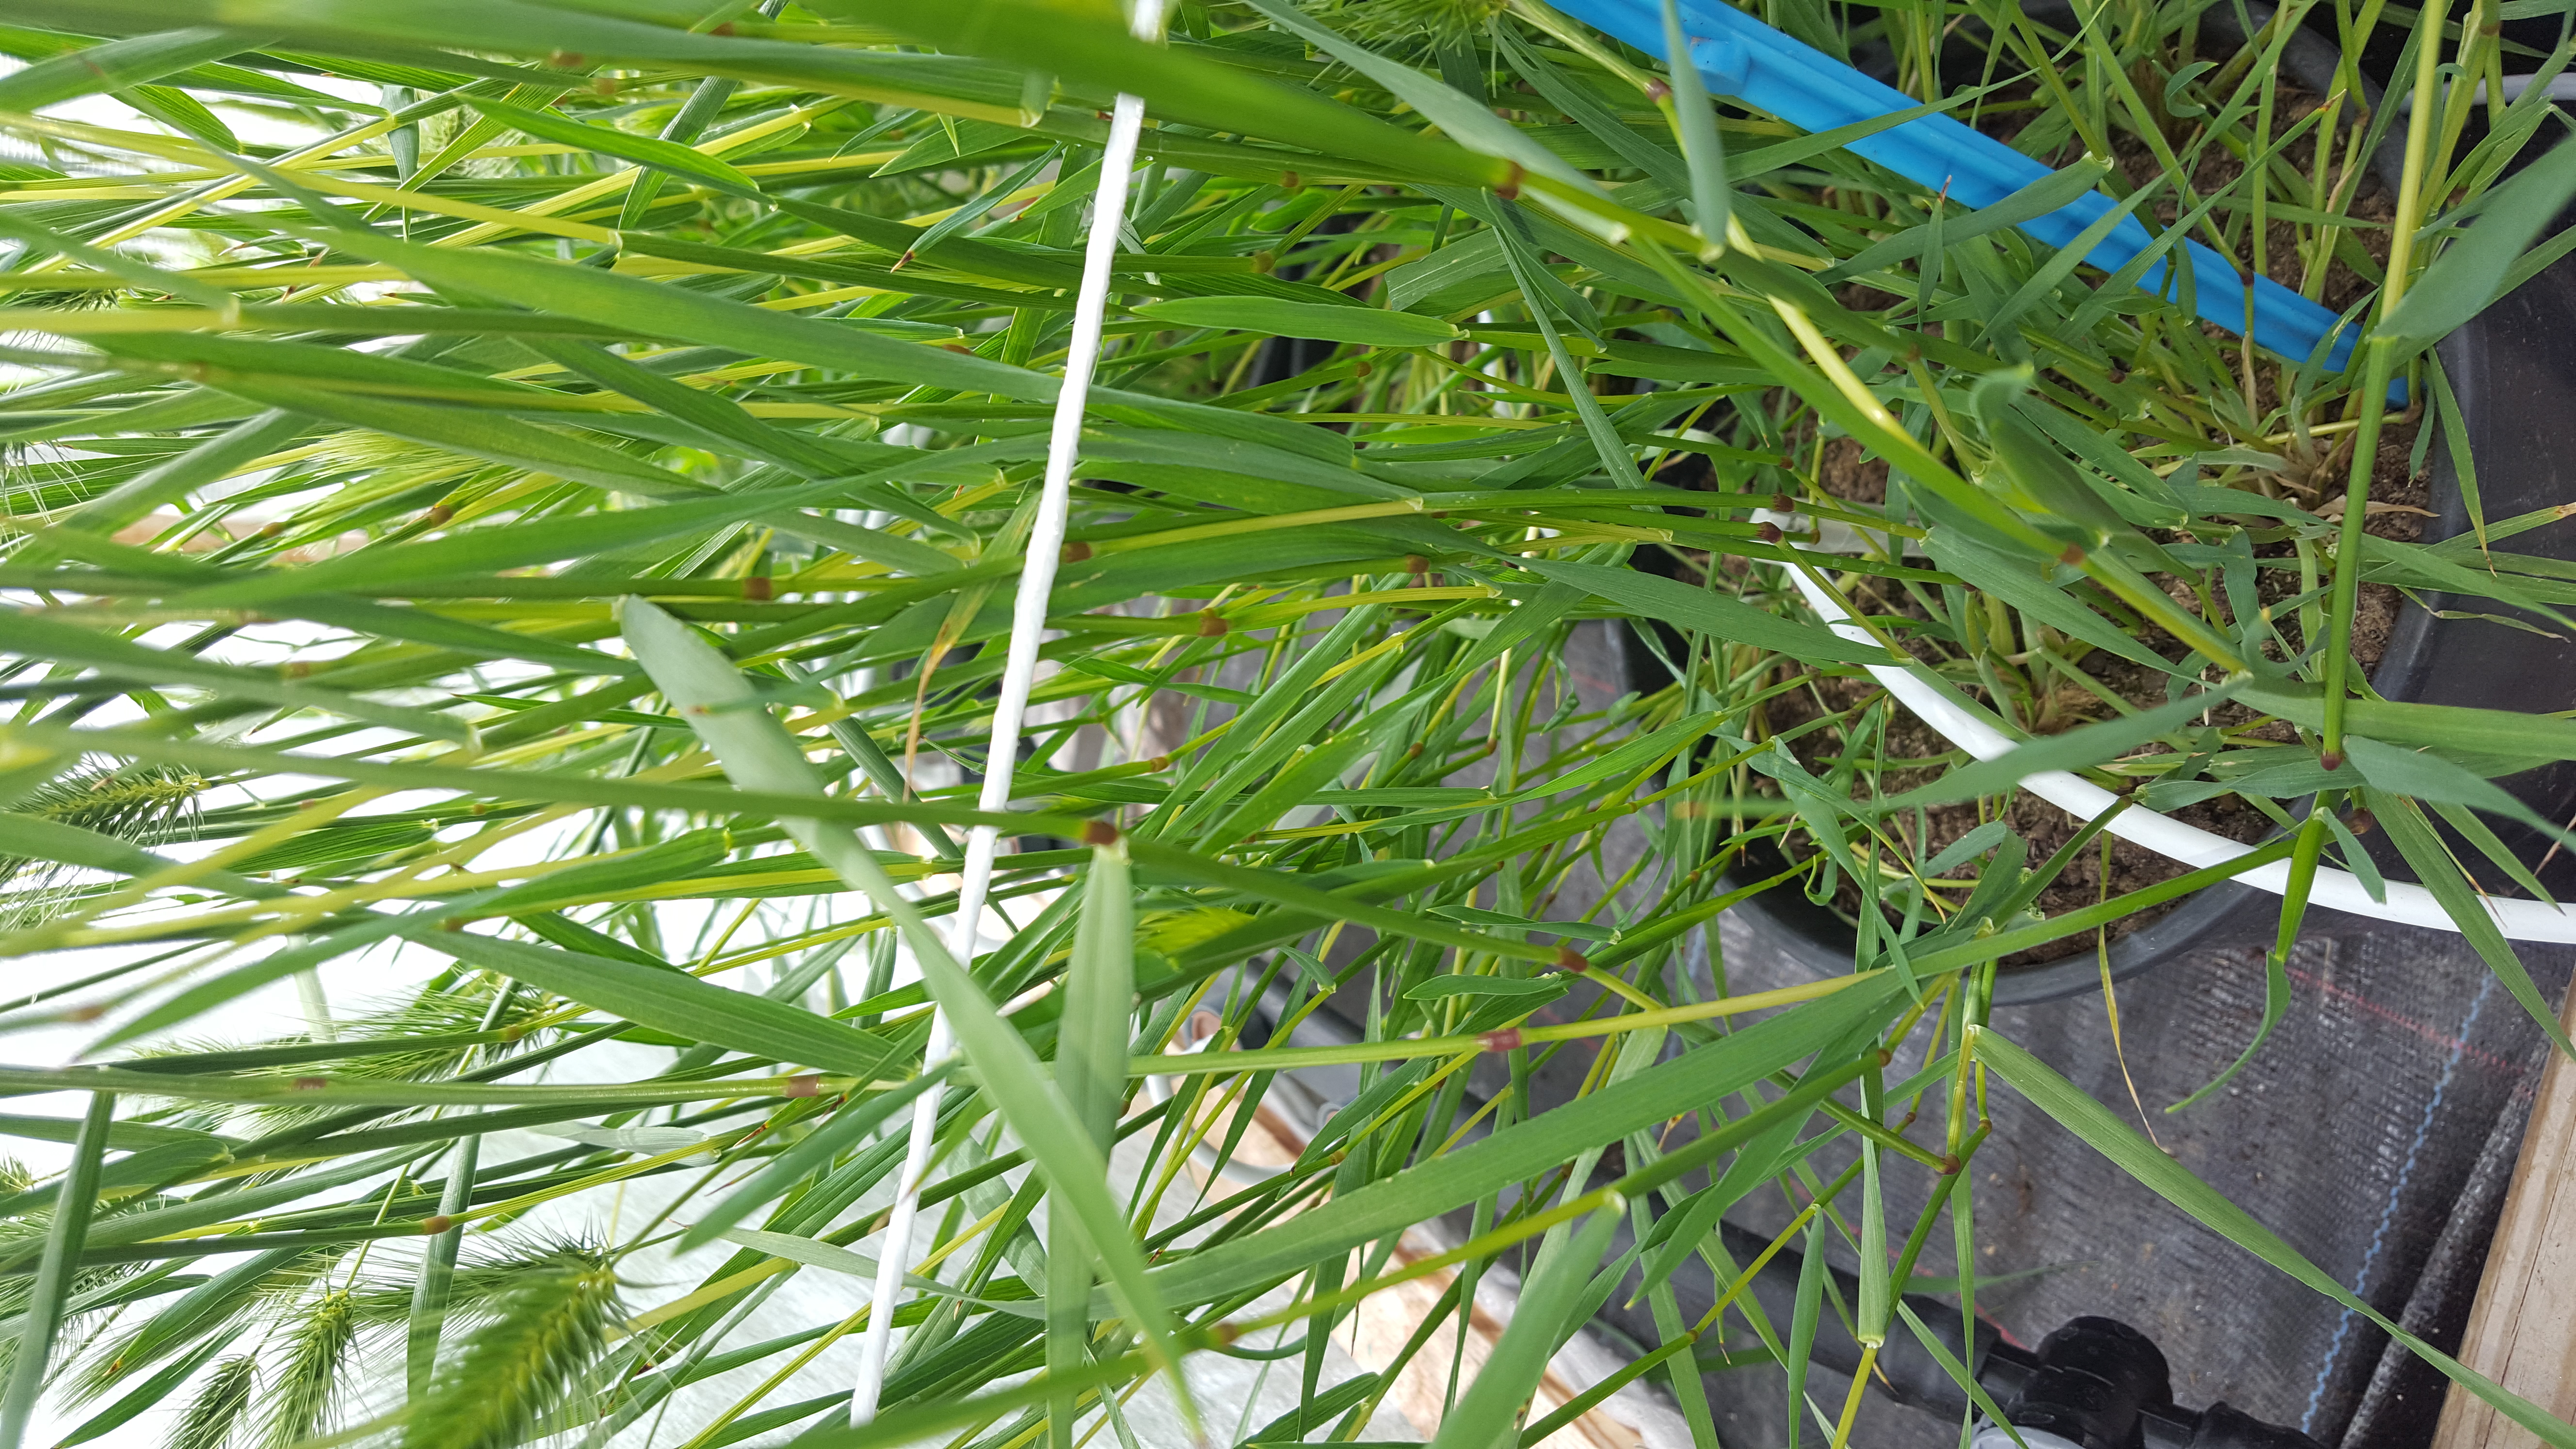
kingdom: Plantae
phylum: Tracheophyta
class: Liliopsida
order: Poales
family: Poaceae
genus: Hordeum
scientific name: Hordeum marinum
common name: Sea barley
